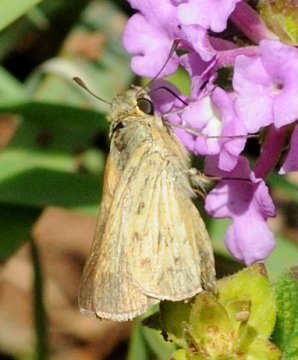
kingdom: Animalia
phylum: Arthropoda
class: Insecta
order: Lepidoptera
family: Hesperiidae
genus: Gegenes
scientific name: Gegenes
